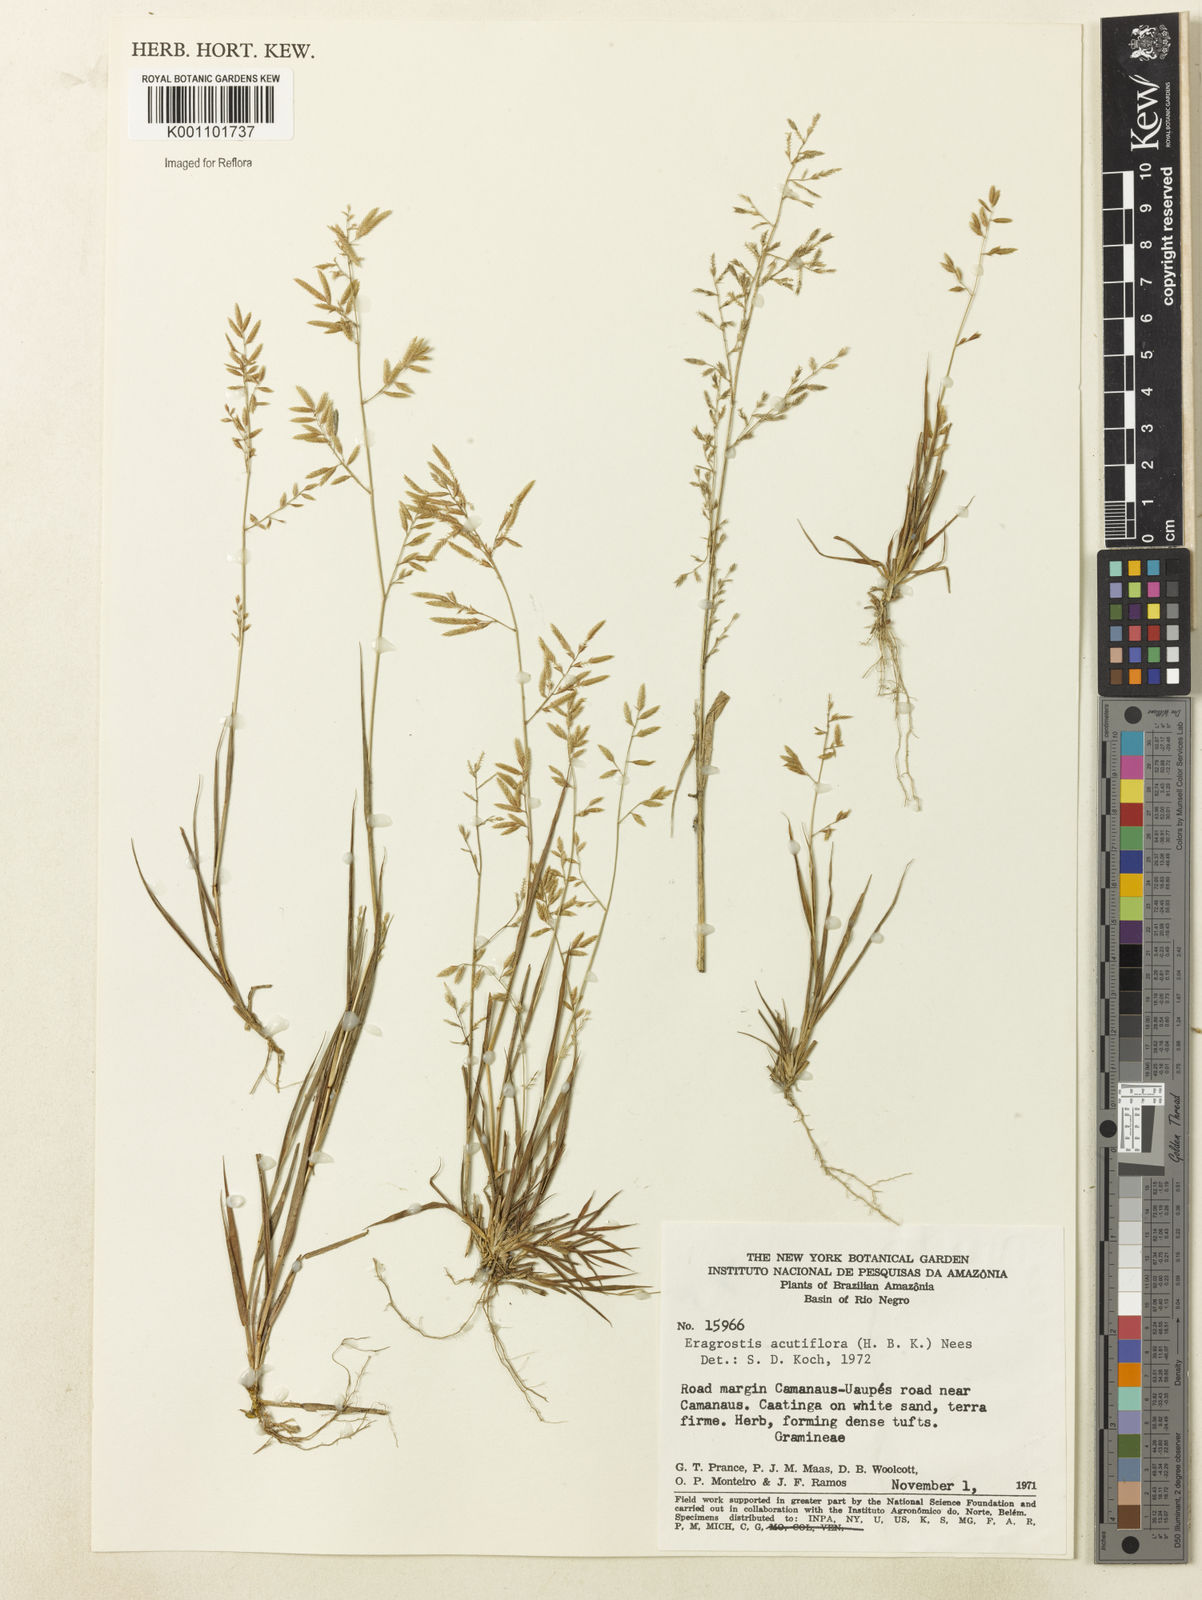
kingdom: Plantae
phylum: Tracheophyta
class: Liliopsida
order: Poales
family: Poaceae
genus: Eragrostis
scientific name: Eragrostis acutiflora
